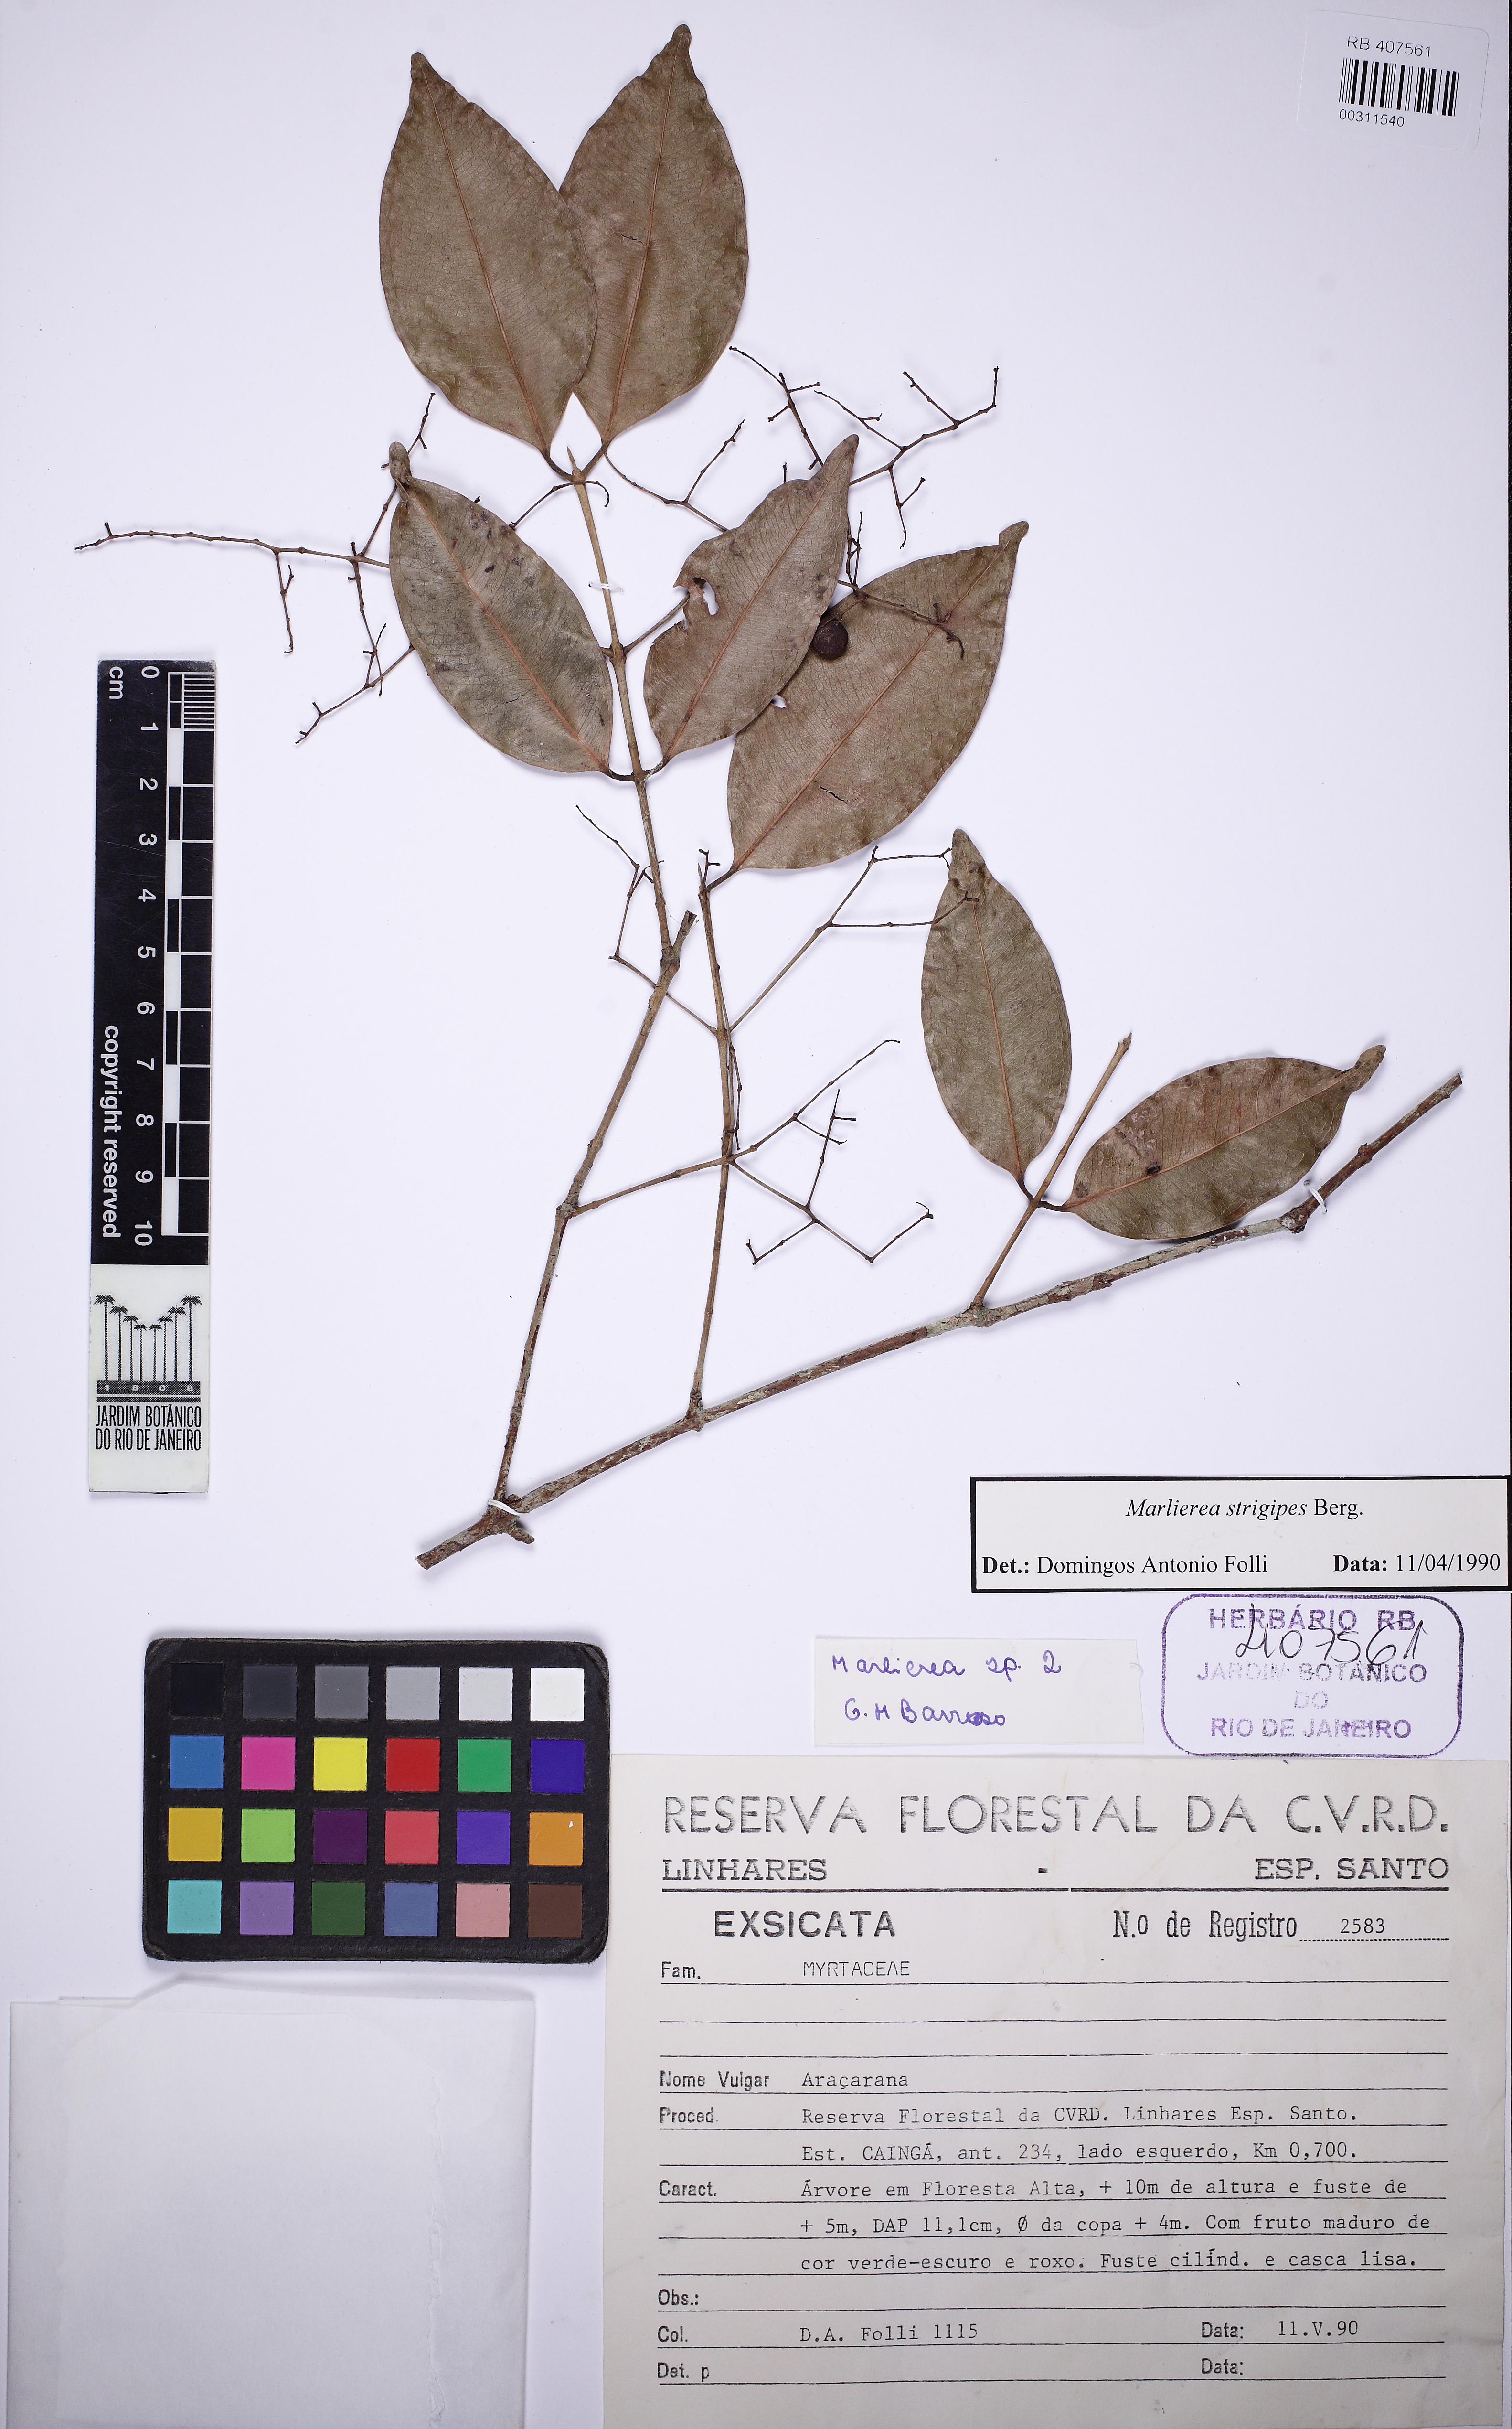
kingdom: Plantae
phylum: Tracheophyta
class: Magnoliopsida
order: Myrtales
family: Myrtaceae
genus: Myrcia
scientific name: Myrcia strigipes
